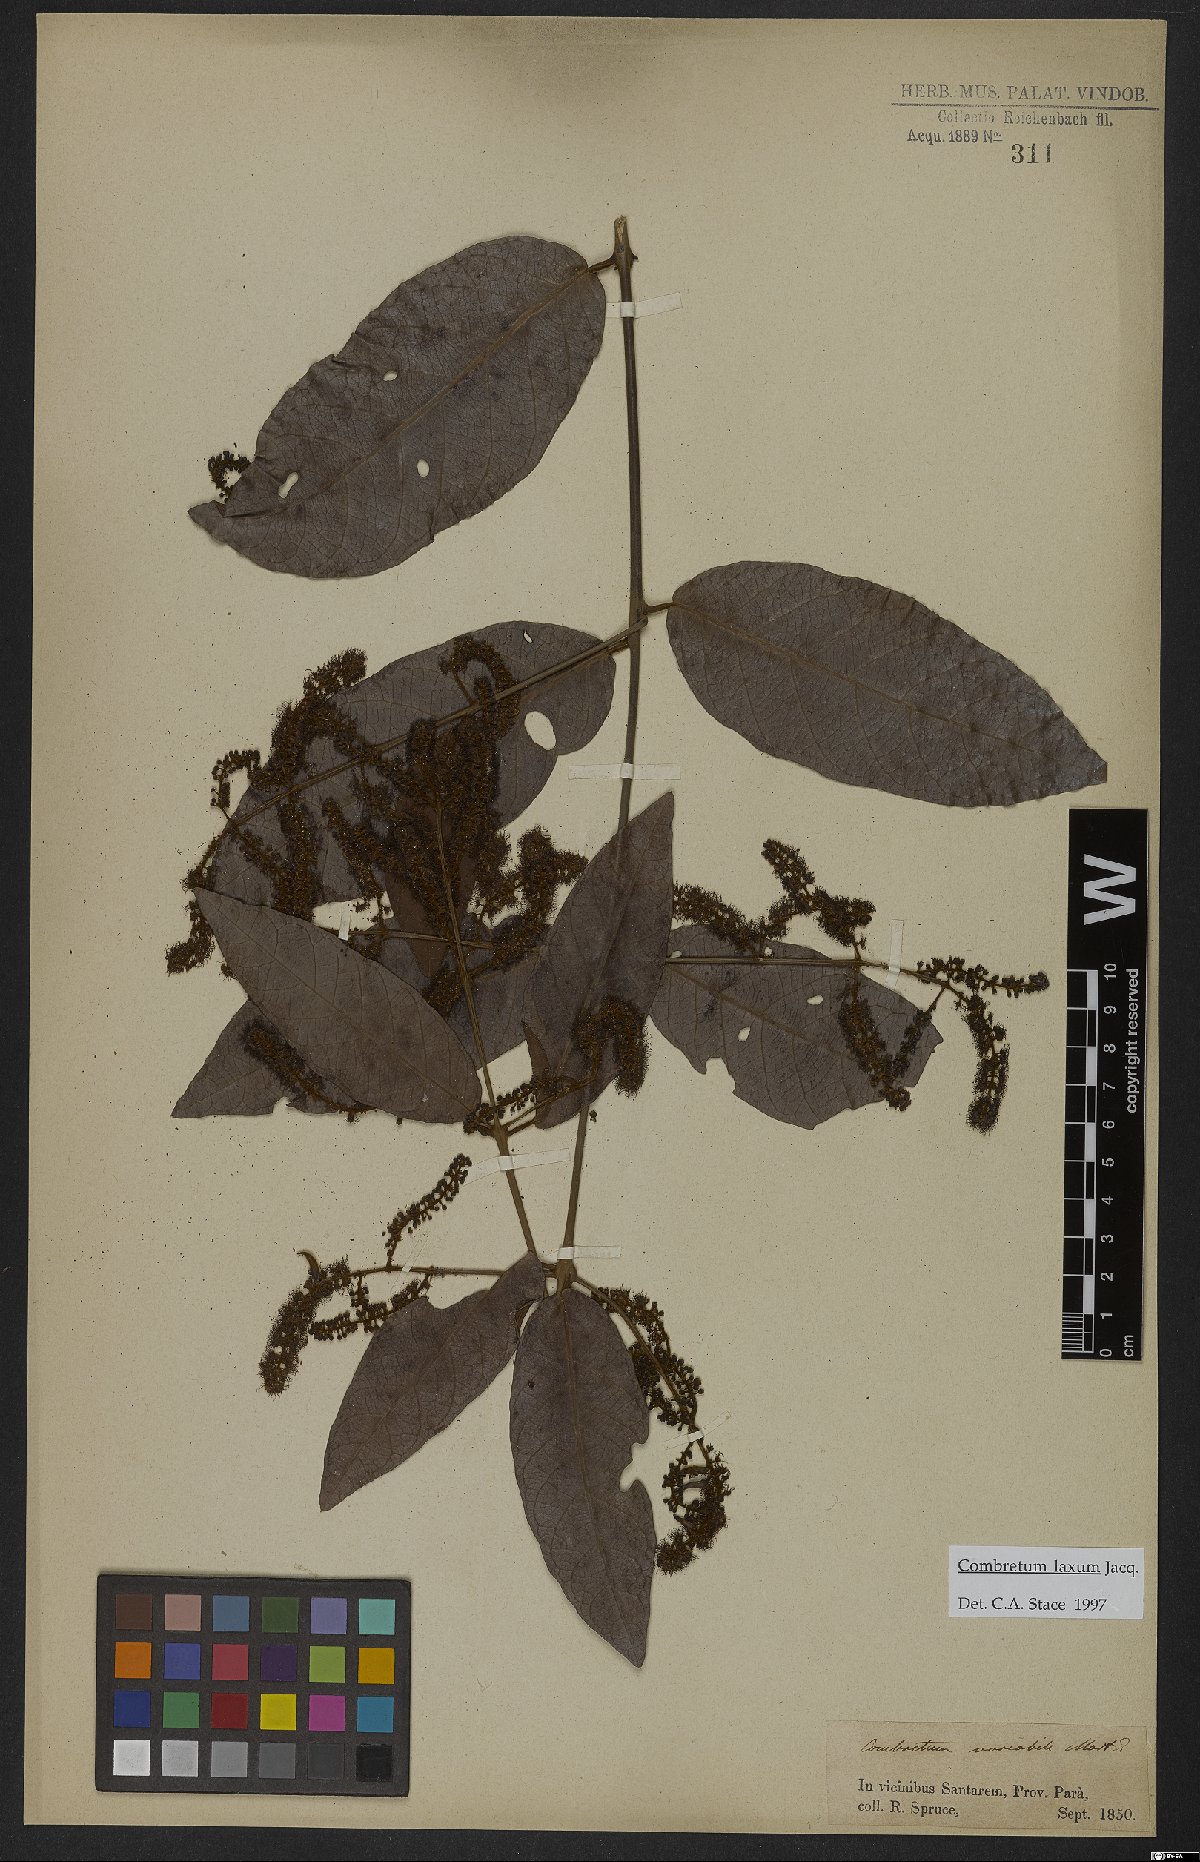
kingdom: Plantae
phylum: Tracheophyta
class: Magnoliopsida
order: Myrtales
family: Combretaceae
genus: Combretum
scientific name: Combretum laxum
